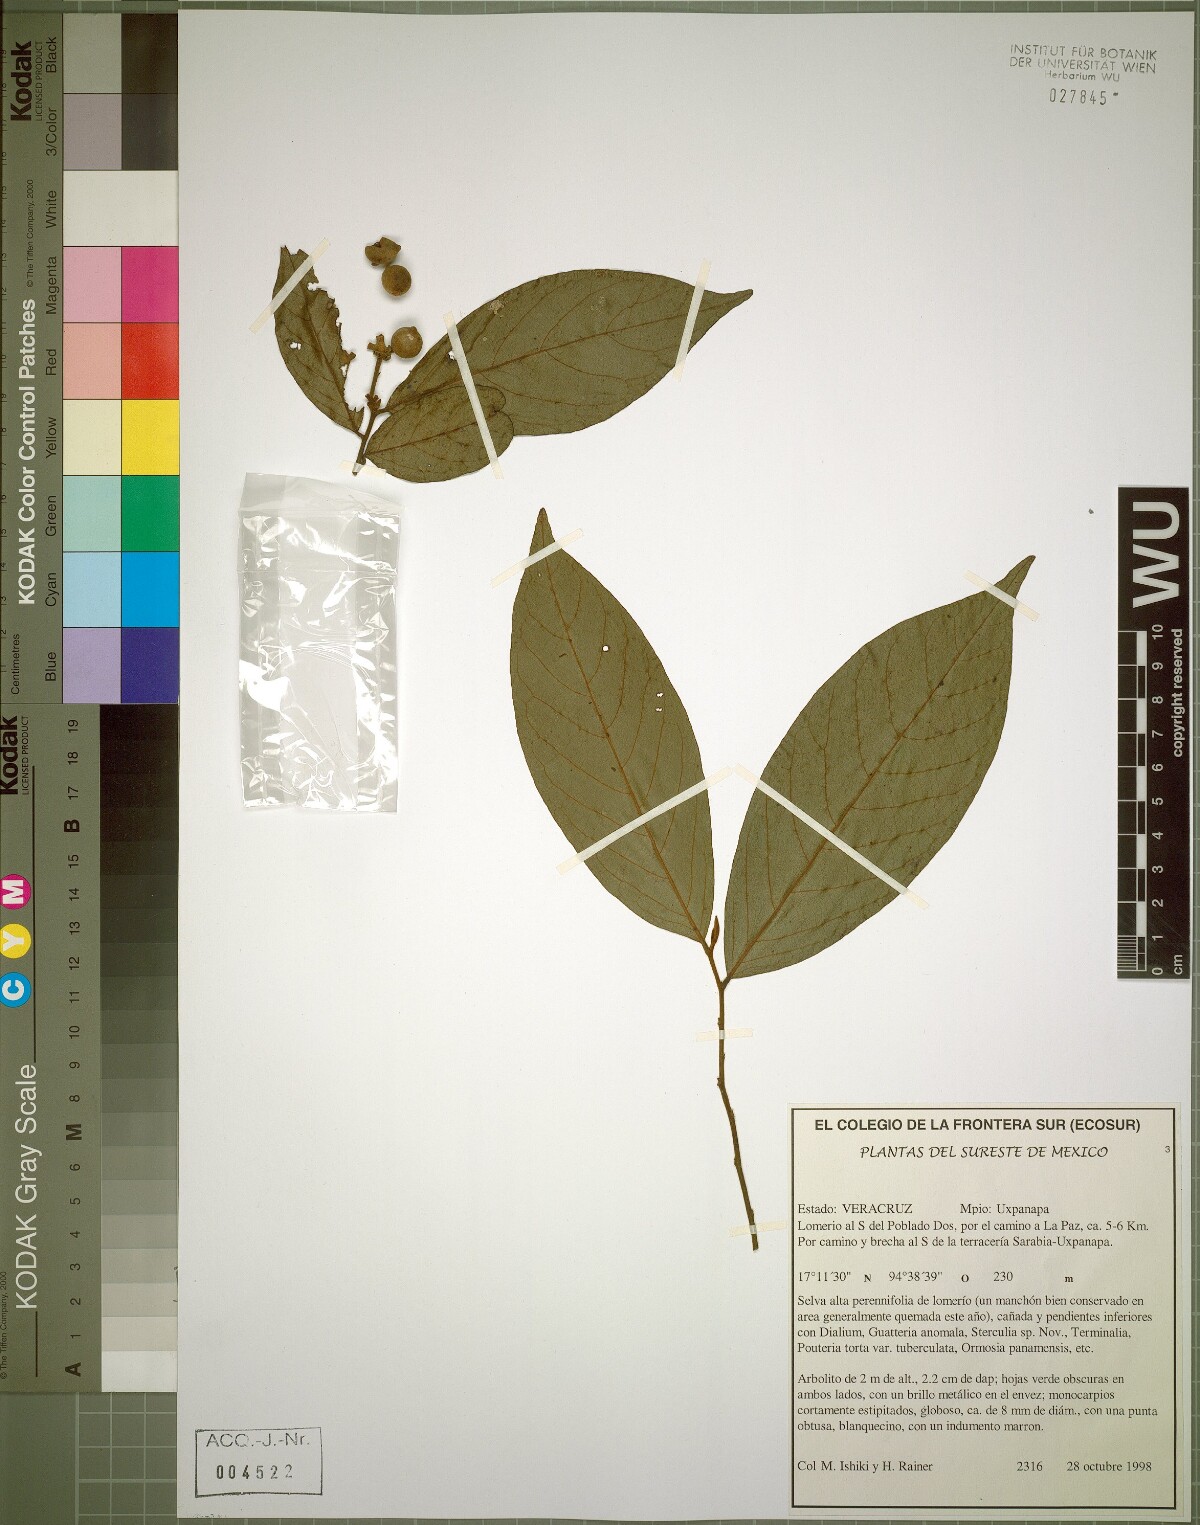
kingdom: Plantae
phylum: Tracheophyta
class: Magnoliopsida
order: Magnoliales
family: Annonaceae
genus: Desmopsis
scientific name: Desmopsis
